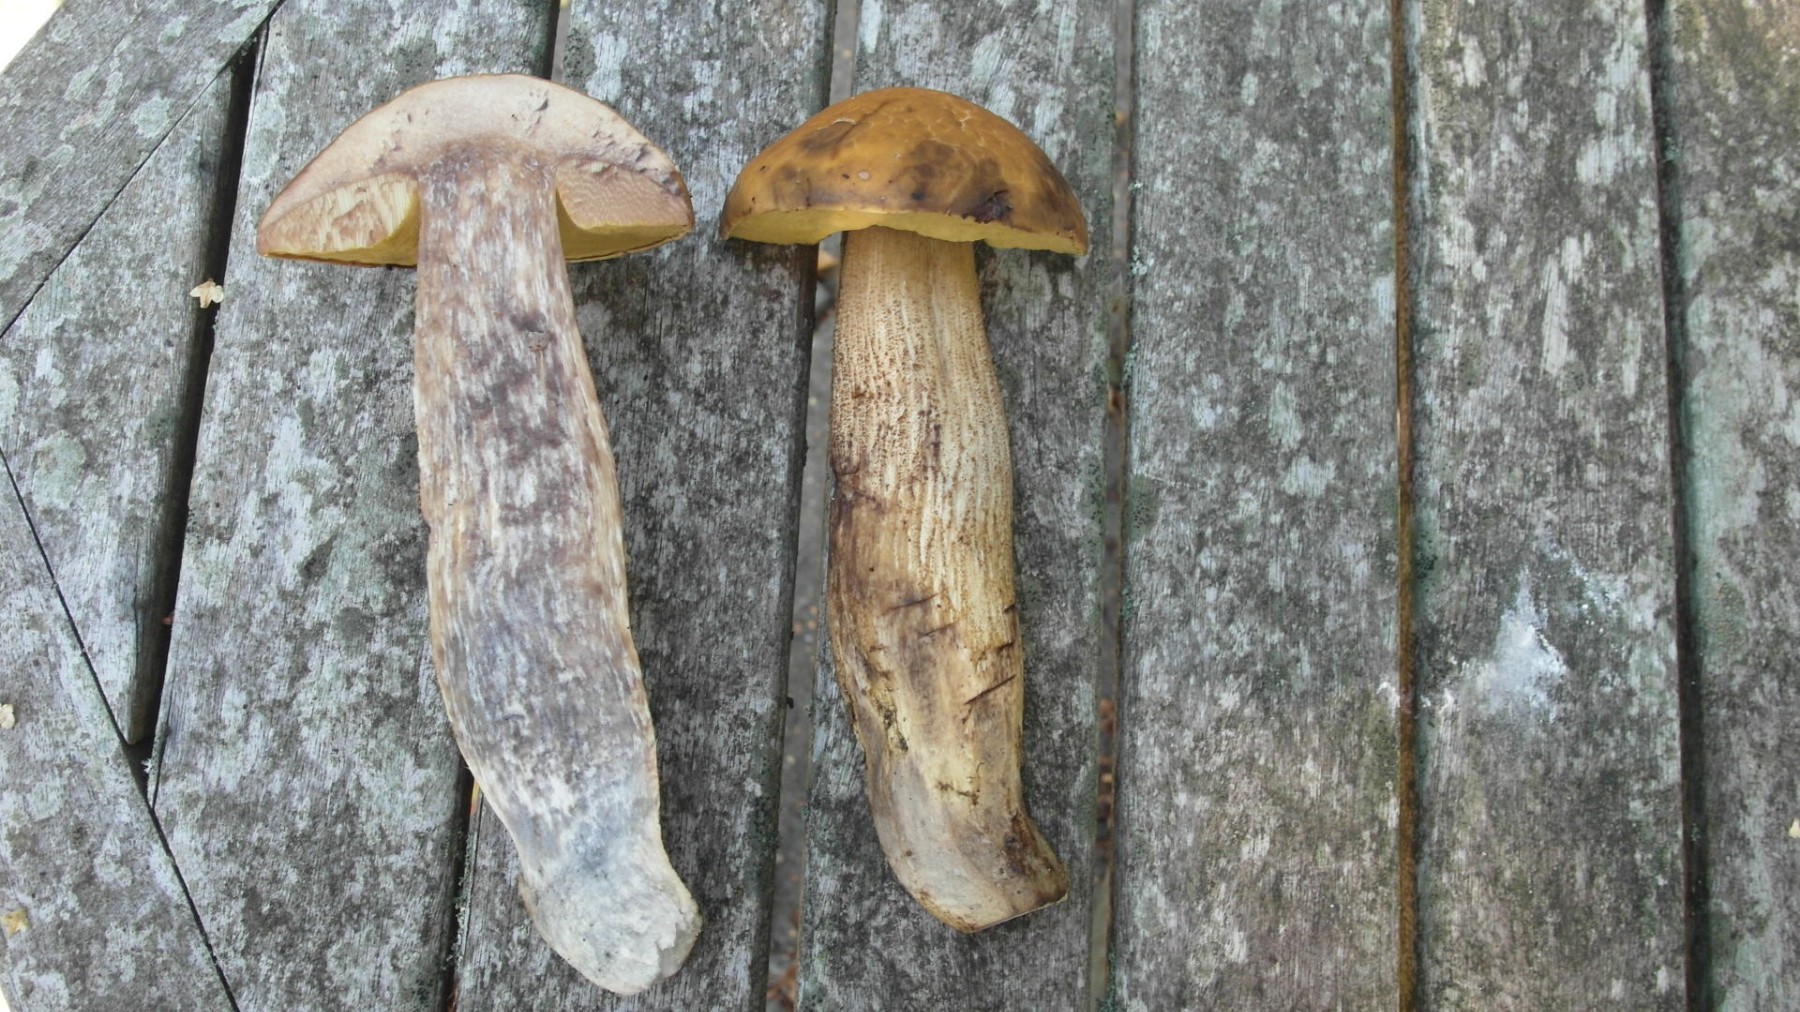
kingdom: Fungi
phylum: Basidiomycota
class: Agaricomycetes
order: Boletales
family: Boletaceae
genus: Leccinellum
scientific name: Leccinellum crocipodium
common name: gul skælrørhat
